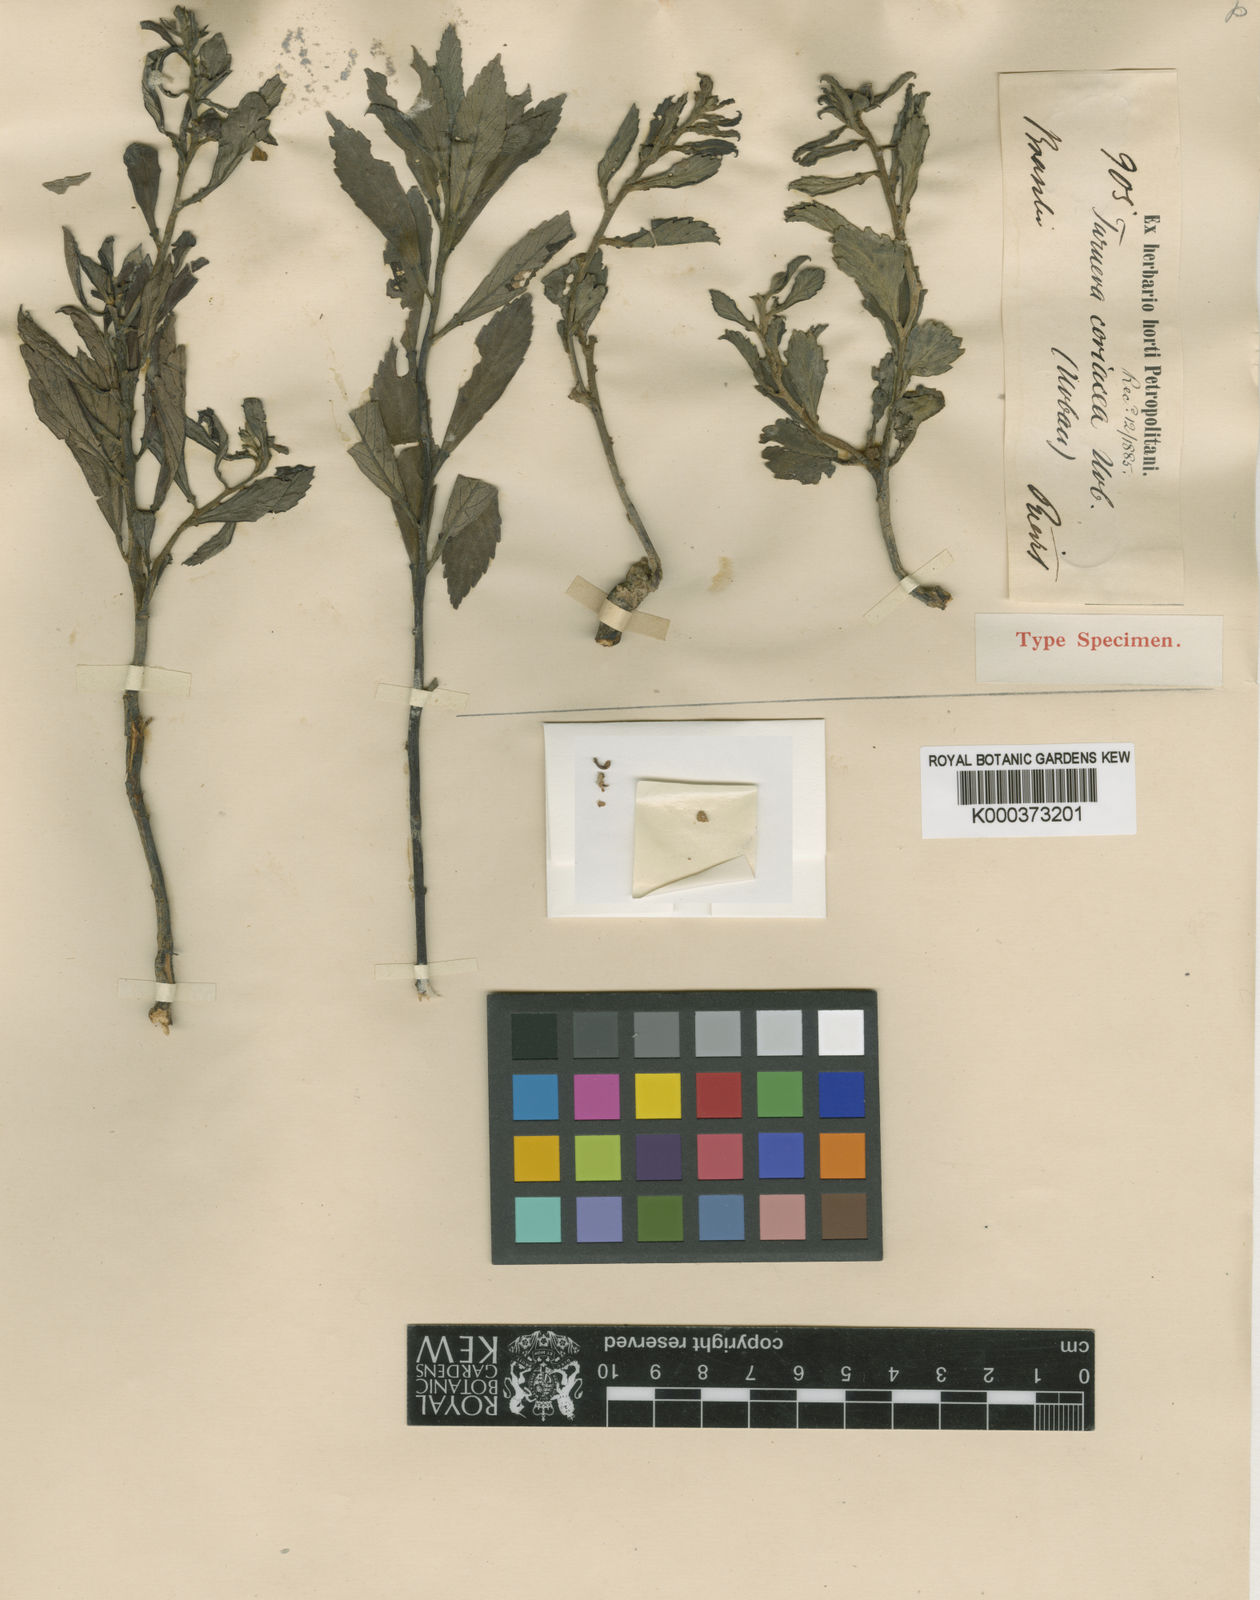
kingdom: Plantae
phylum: Tracheophyta
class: Magnoliopsida
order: Malpighiales
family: Turneraceae
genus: Turnera
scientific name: Turnera coriacea
